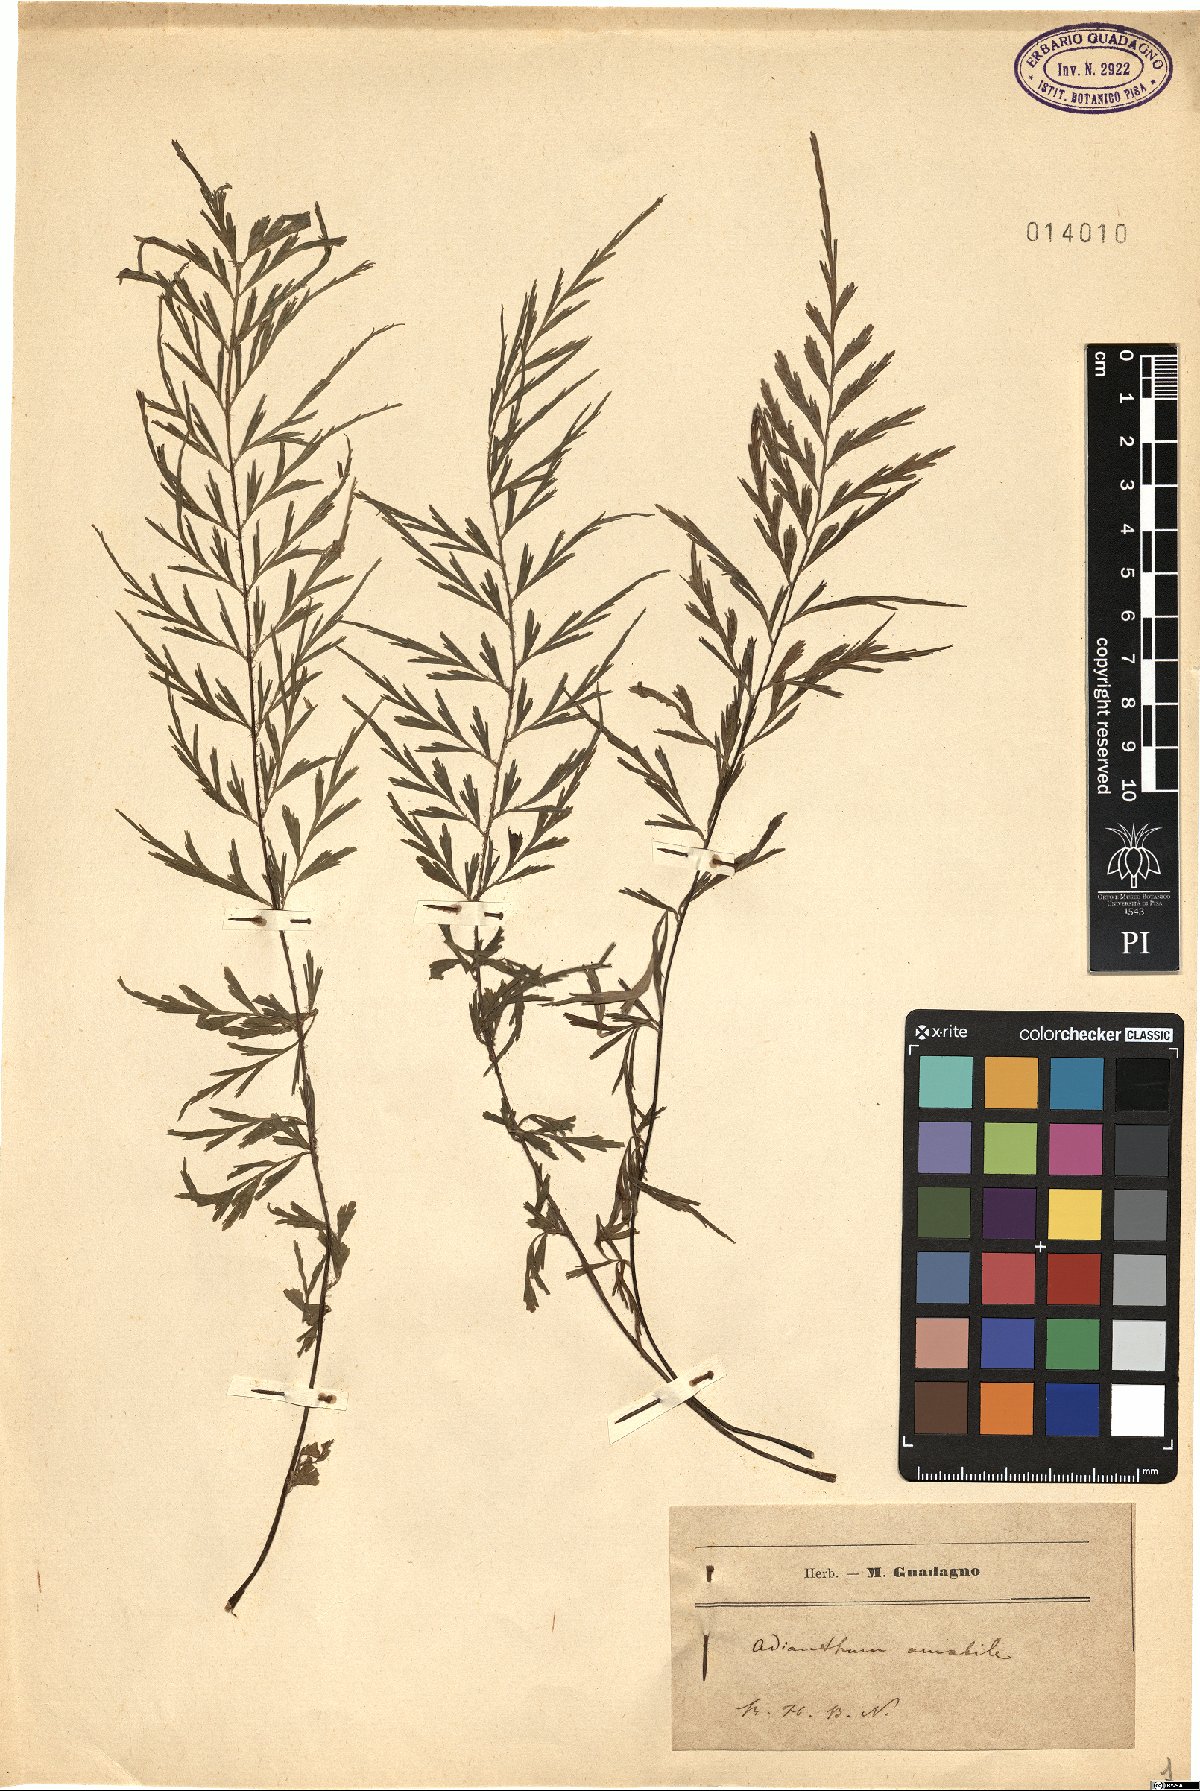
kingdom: Plantae
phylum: Tracheophyta
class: Polypodiopsida
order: Polypodiales
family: Pteridaceae
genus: Adiantum
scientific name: Adiantum andicola
